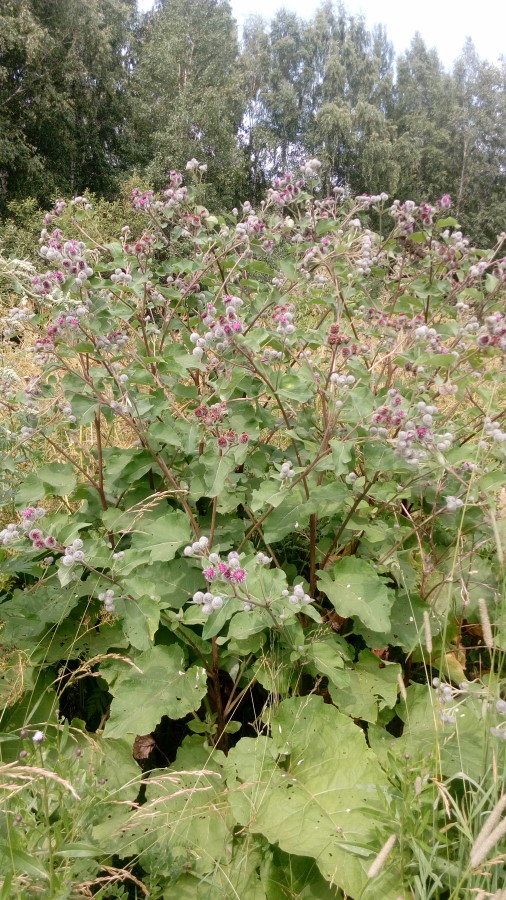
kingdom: Plantae
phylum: Tracheophyta
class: Magnoliopsida
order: Asterales
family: Asteraceae
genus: Arctium
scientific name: Arctium tomentosum
